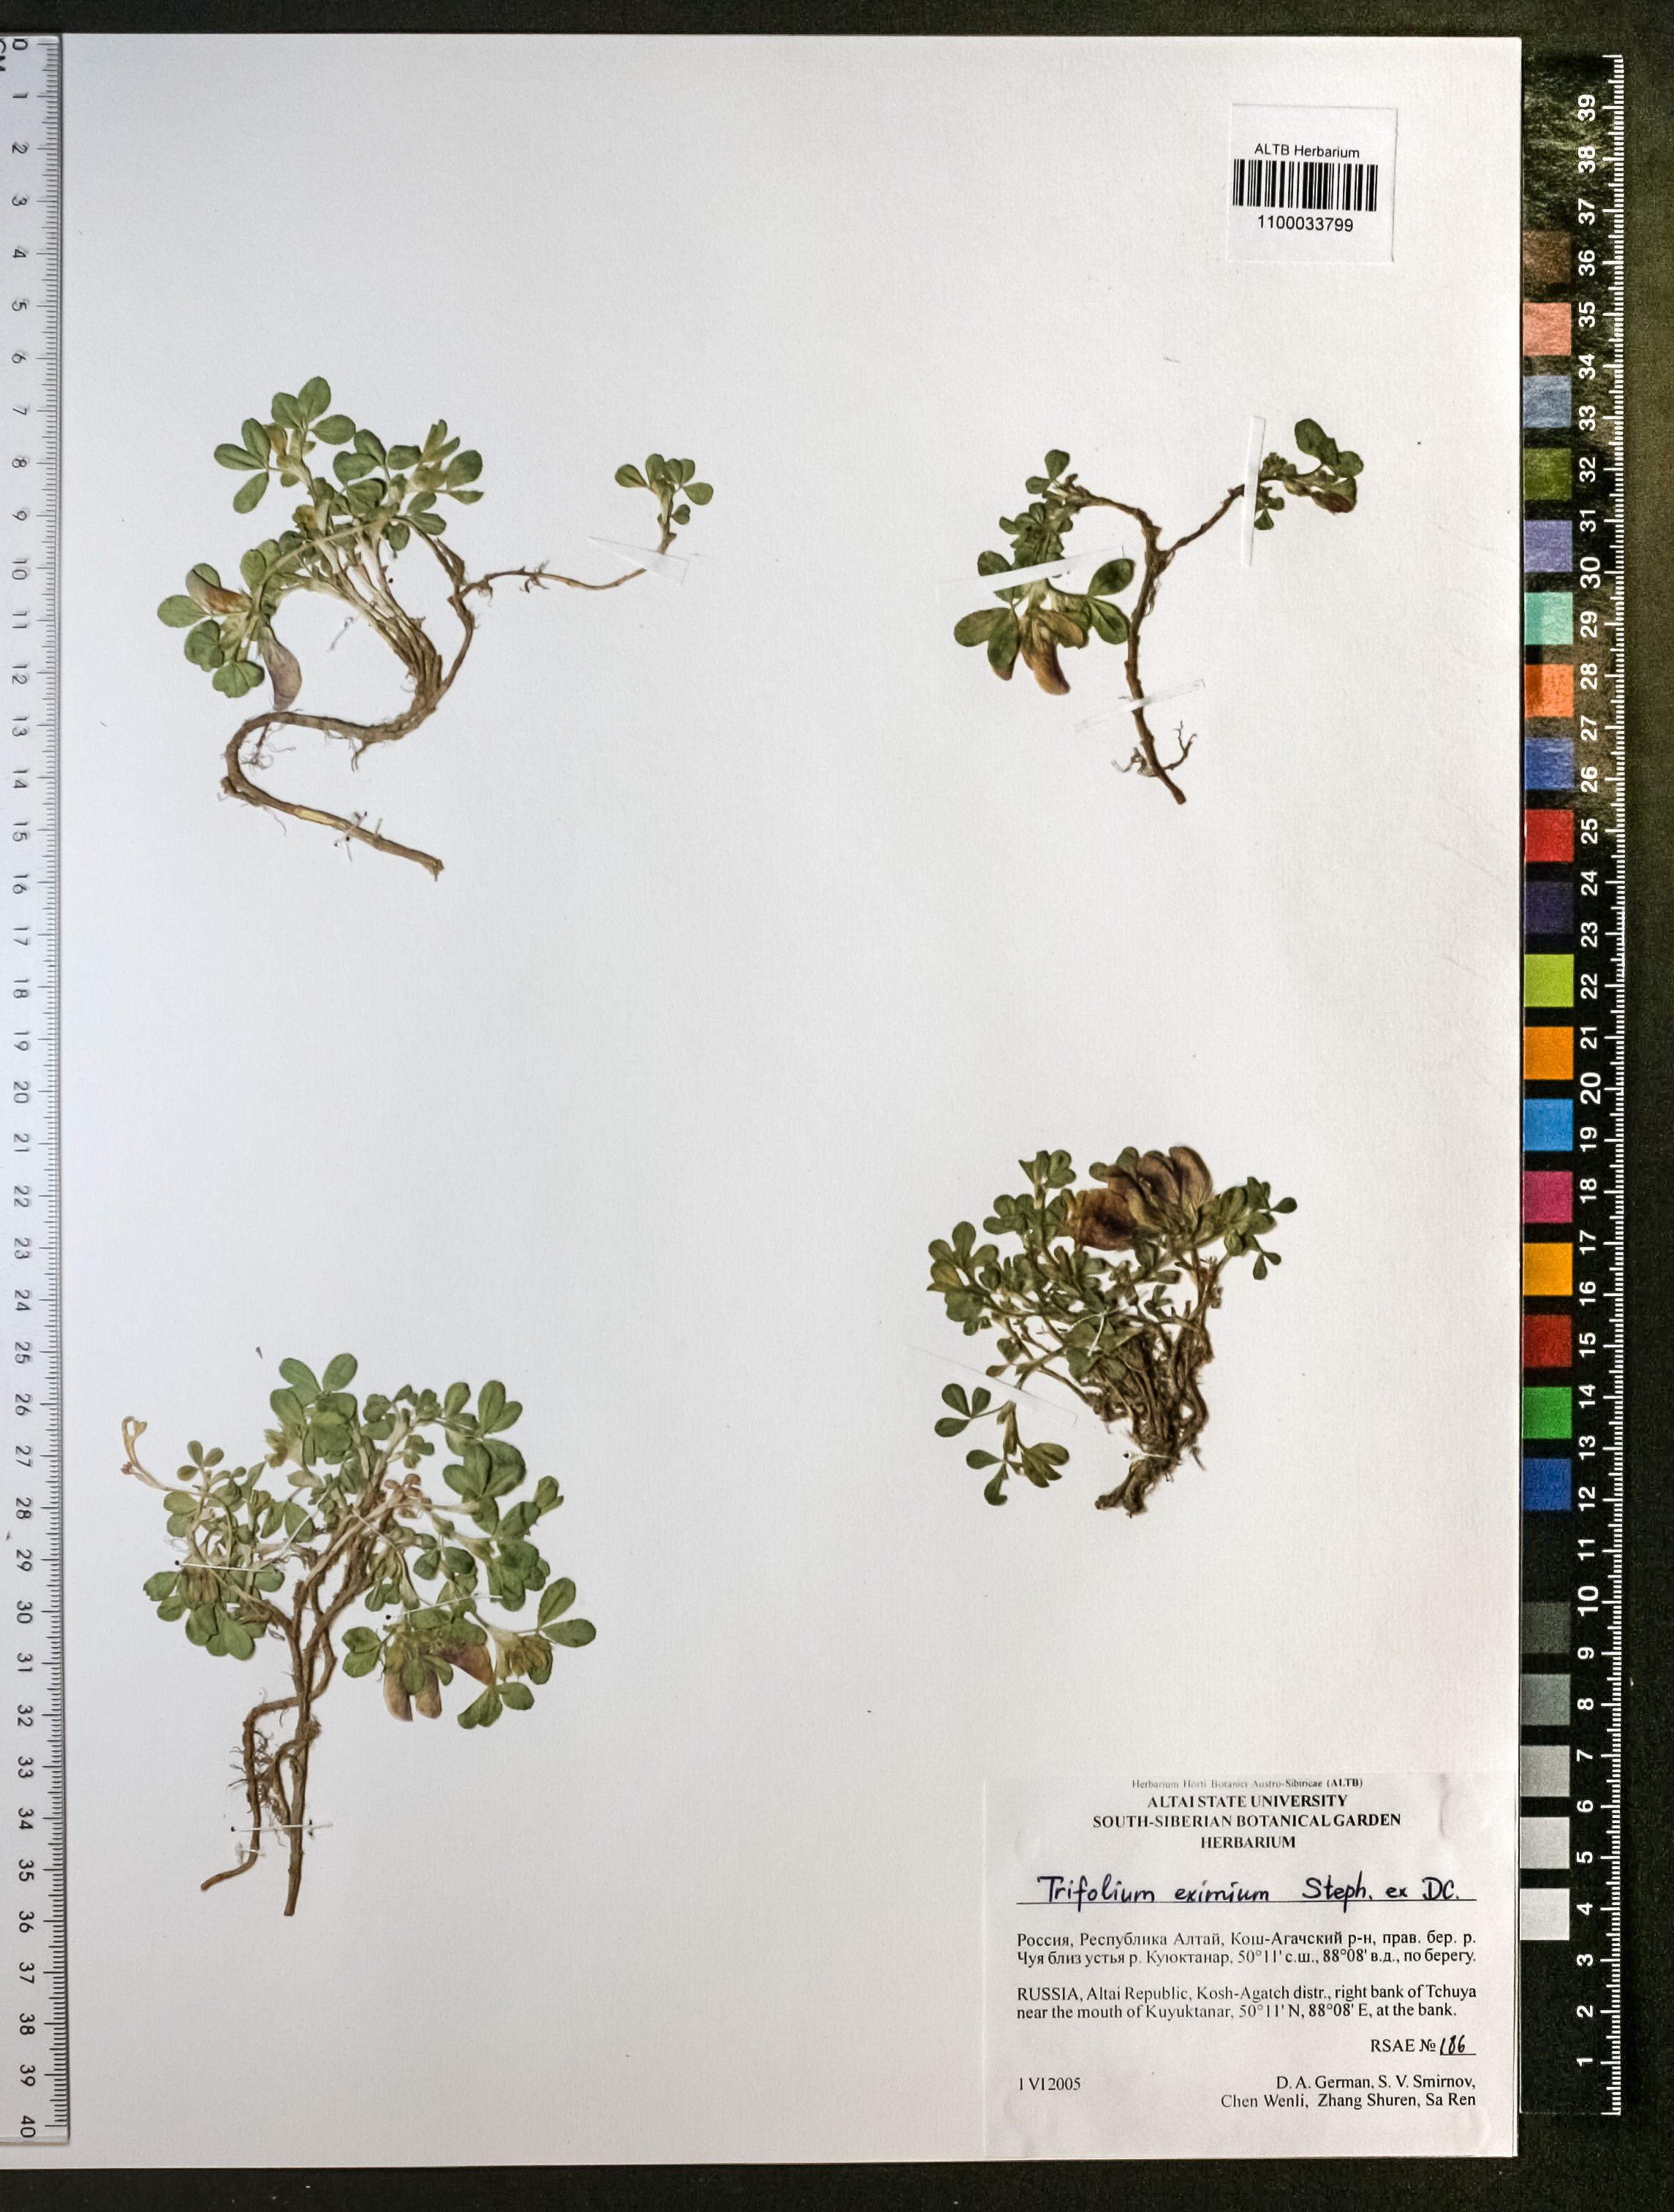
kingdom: Plantae
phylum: Tracheophyta
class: Magnoliopsida
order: Fabales
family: Fabaceae
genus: Trifolium
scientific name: Trifolium eximium
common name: Excellent clover
